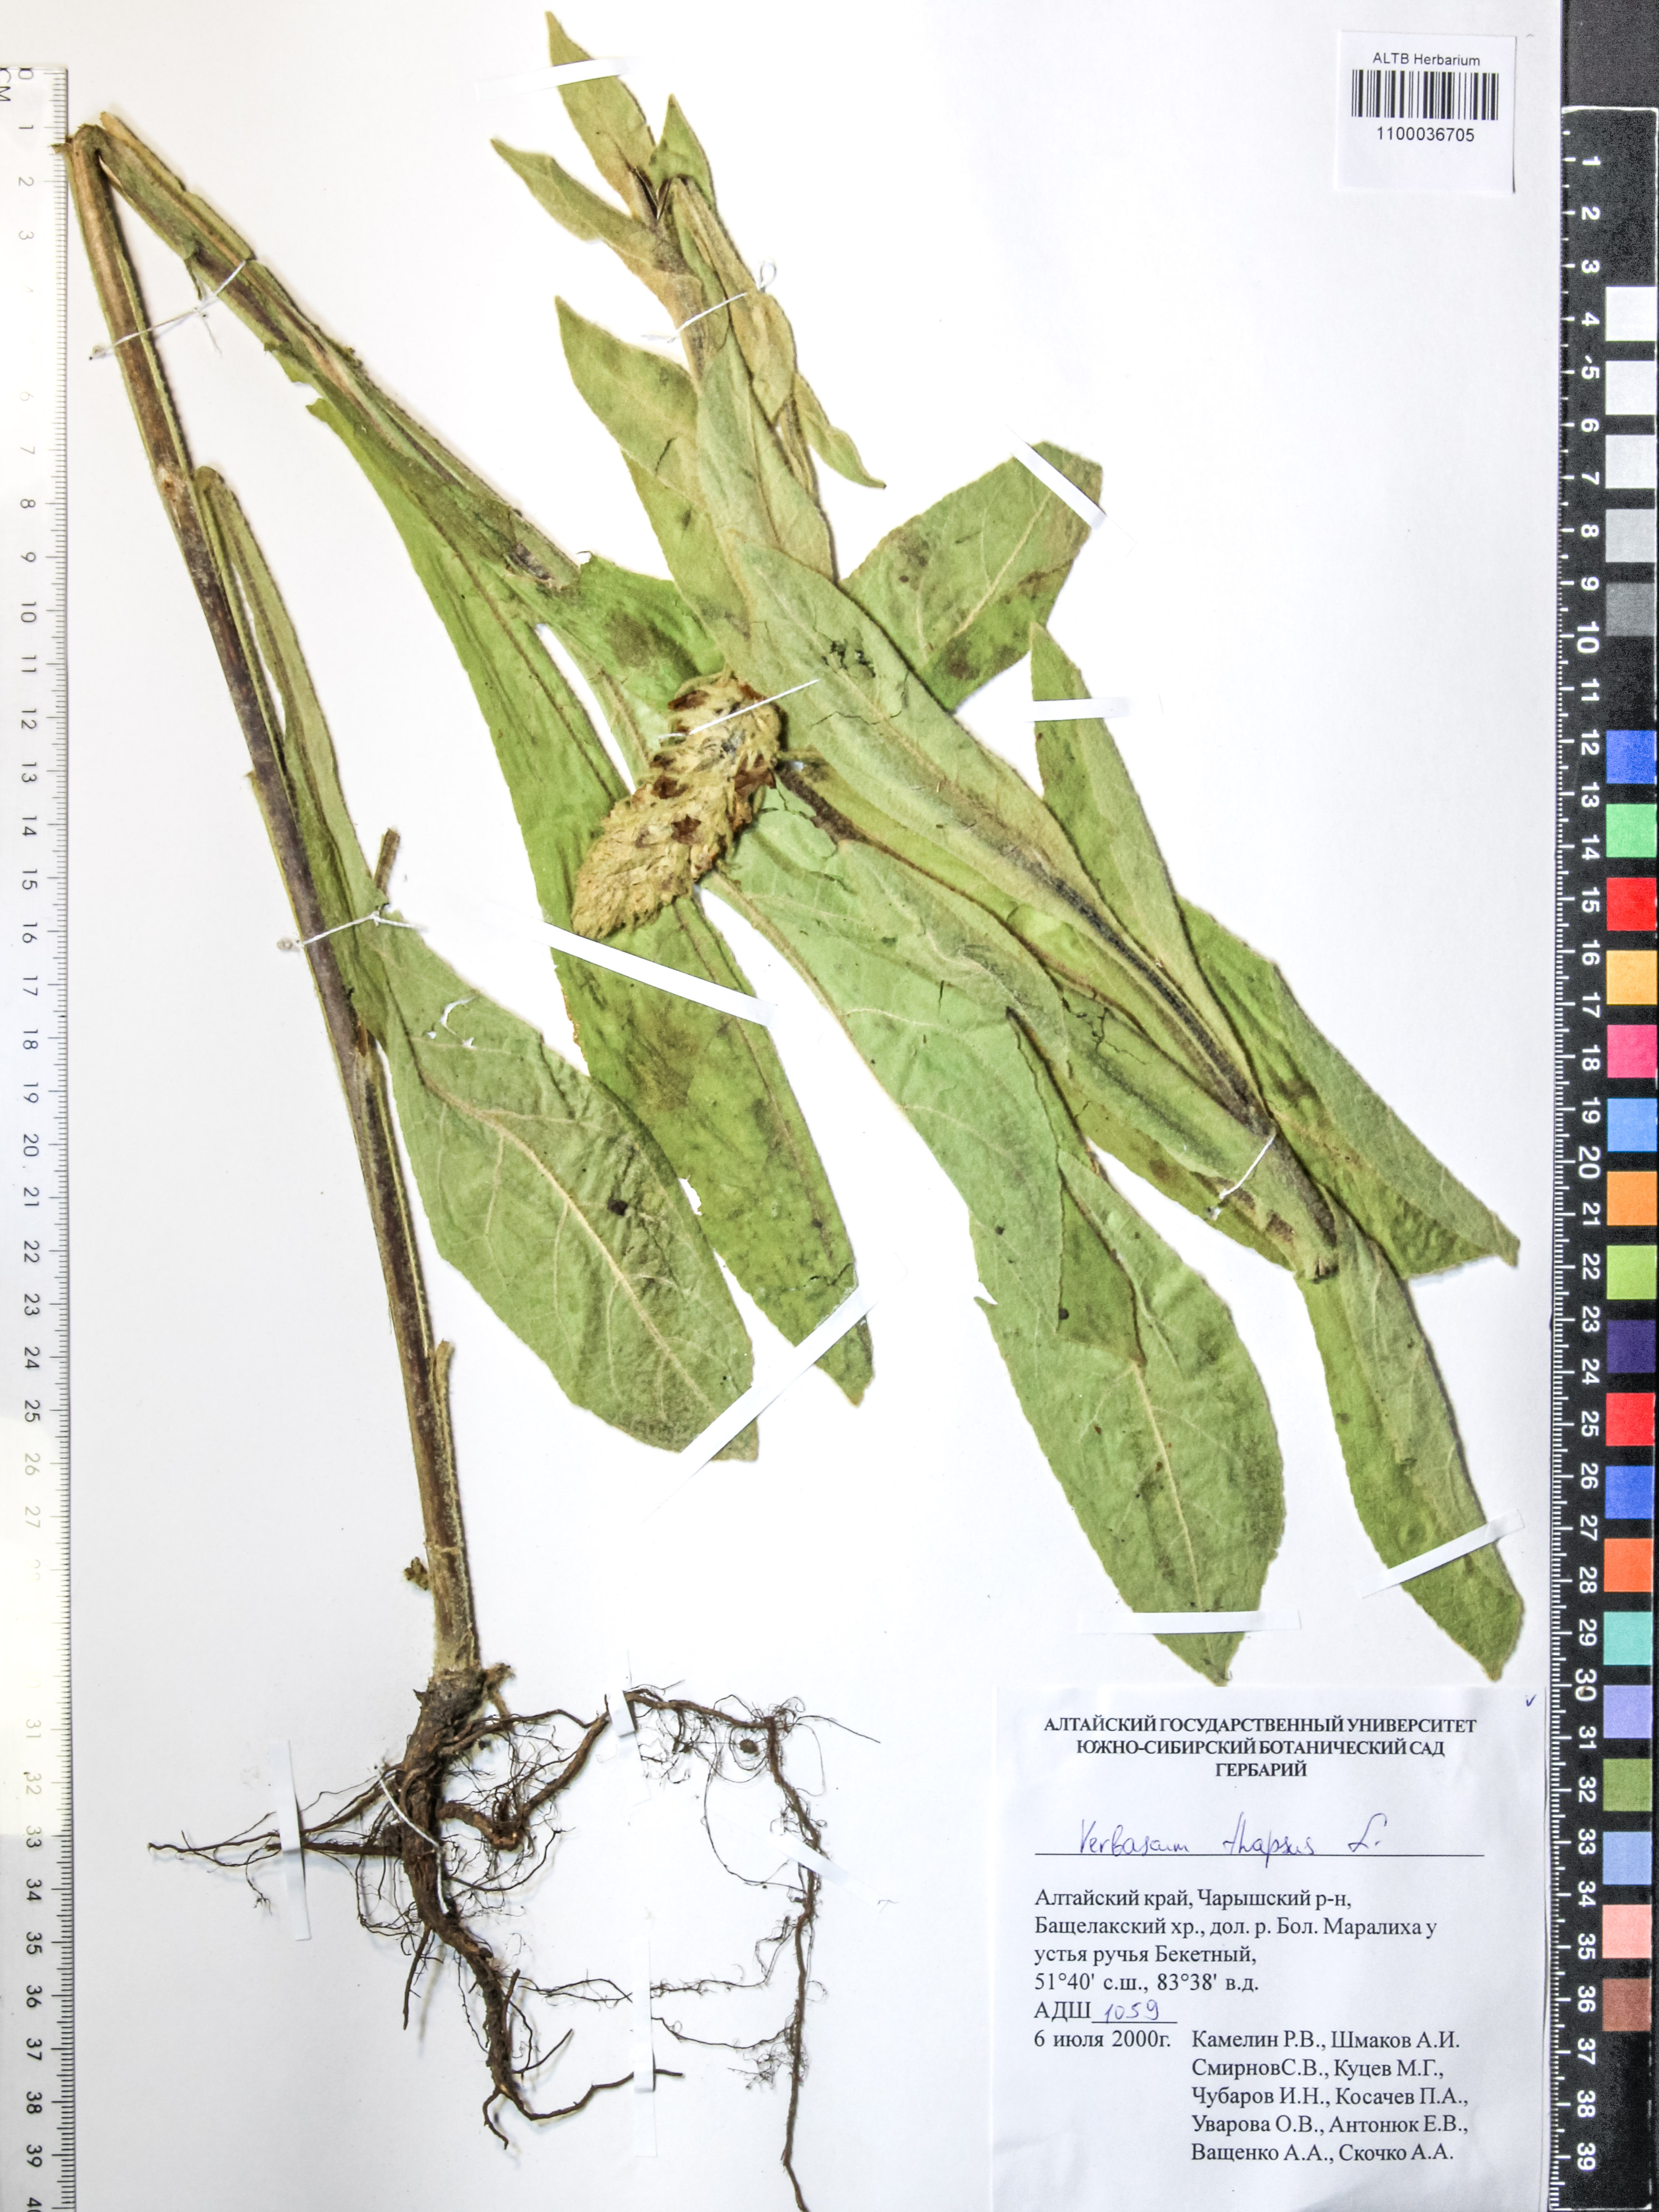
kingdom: Plantae
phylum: Tracheophyta
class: Magnoliopsida
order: Lamiales
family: Scrophulariaceae
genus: Verbascum
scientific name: Verbascum thapsus
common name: Common mullein
